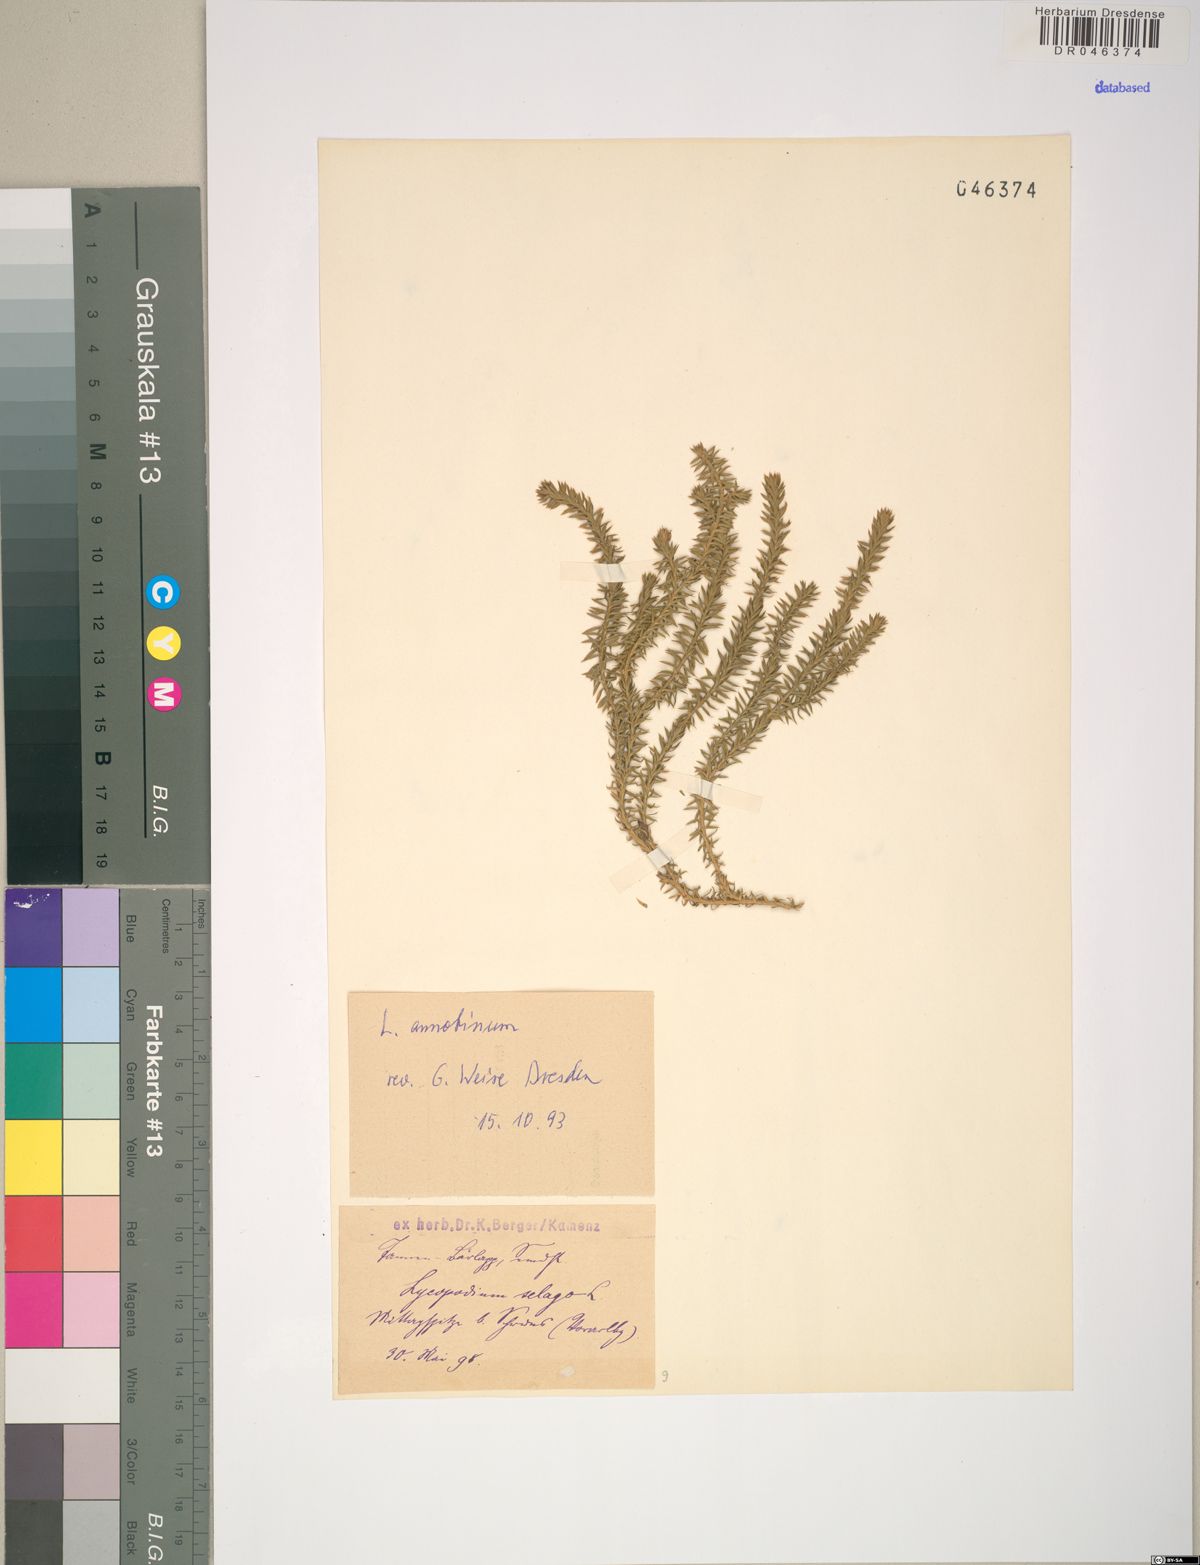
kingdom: Plantae
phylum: Tracheophyta
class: Lycopodiopsida
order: Lycopodiales
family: Lycopodiaceae
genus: Spinulum
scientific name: Spinulum annotinum
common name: Interrupted club-moss
